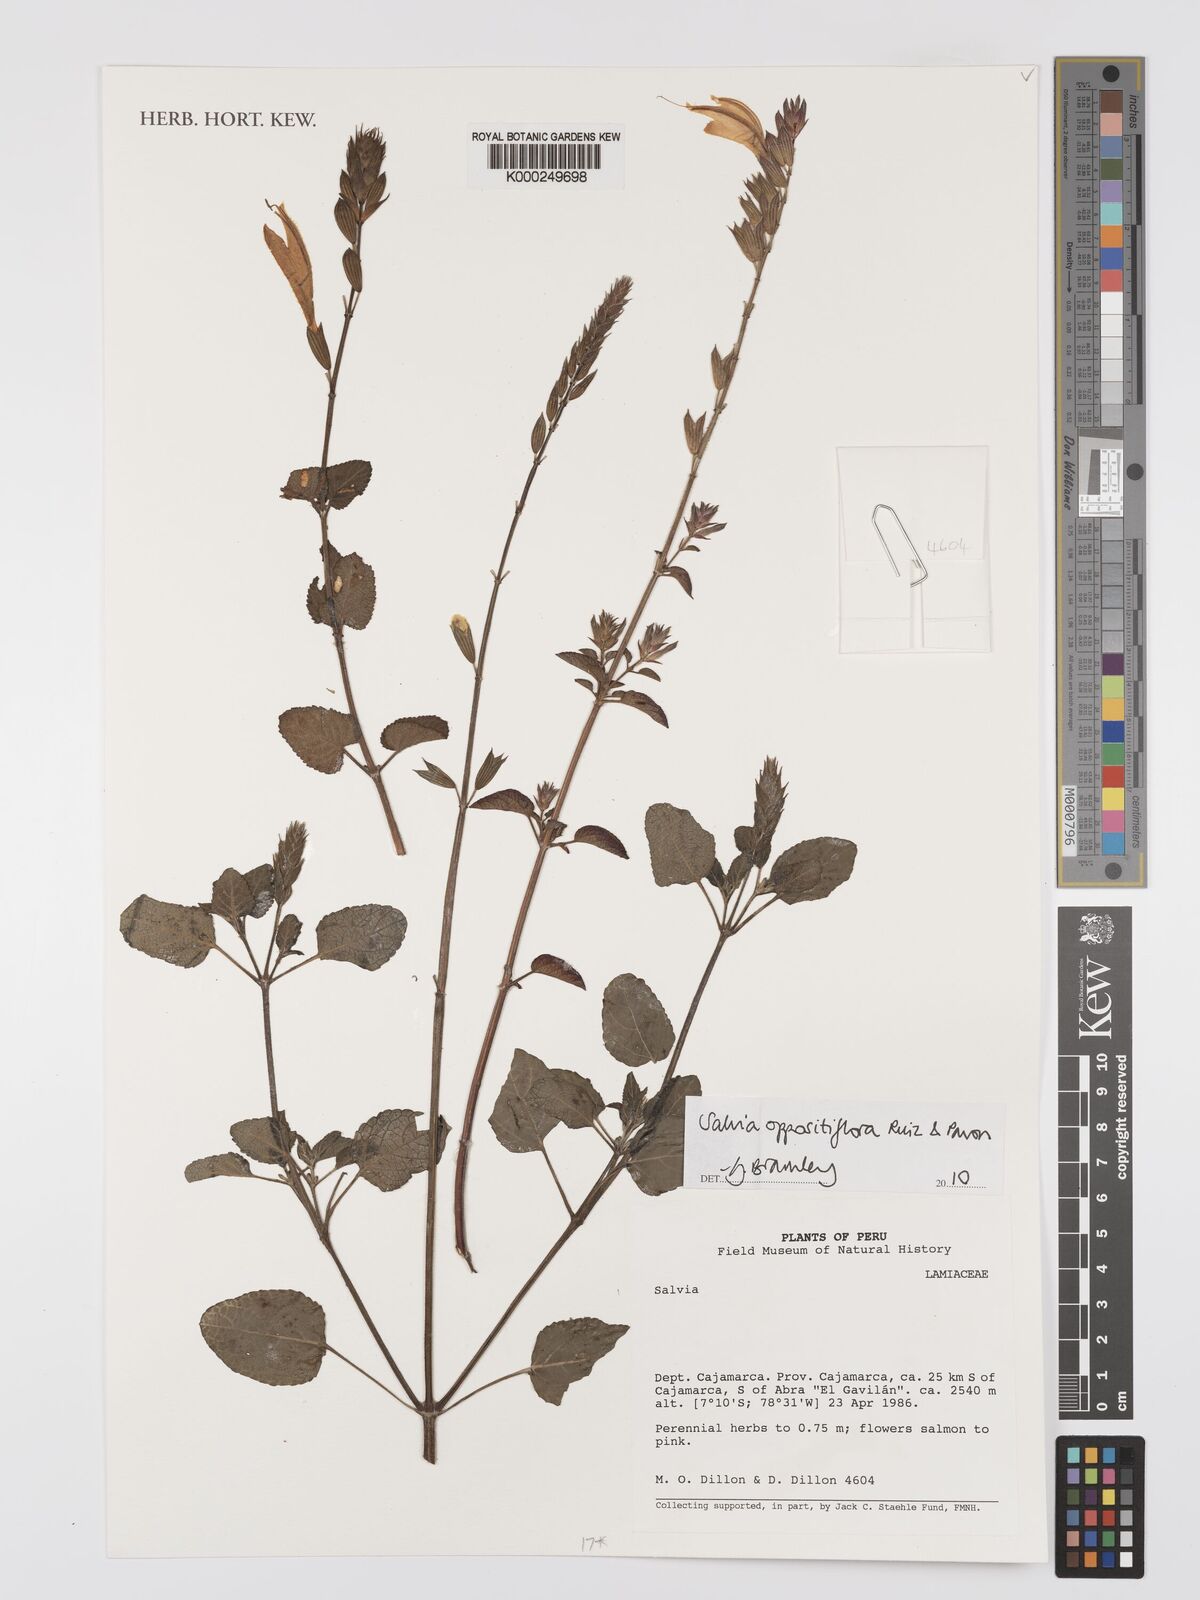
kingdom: Plantae
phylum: Tracheophyta
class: Magnoliopsida
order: Lamiales
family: Lamiaceae
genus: Salvia
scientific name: Salvia oppositiflora
